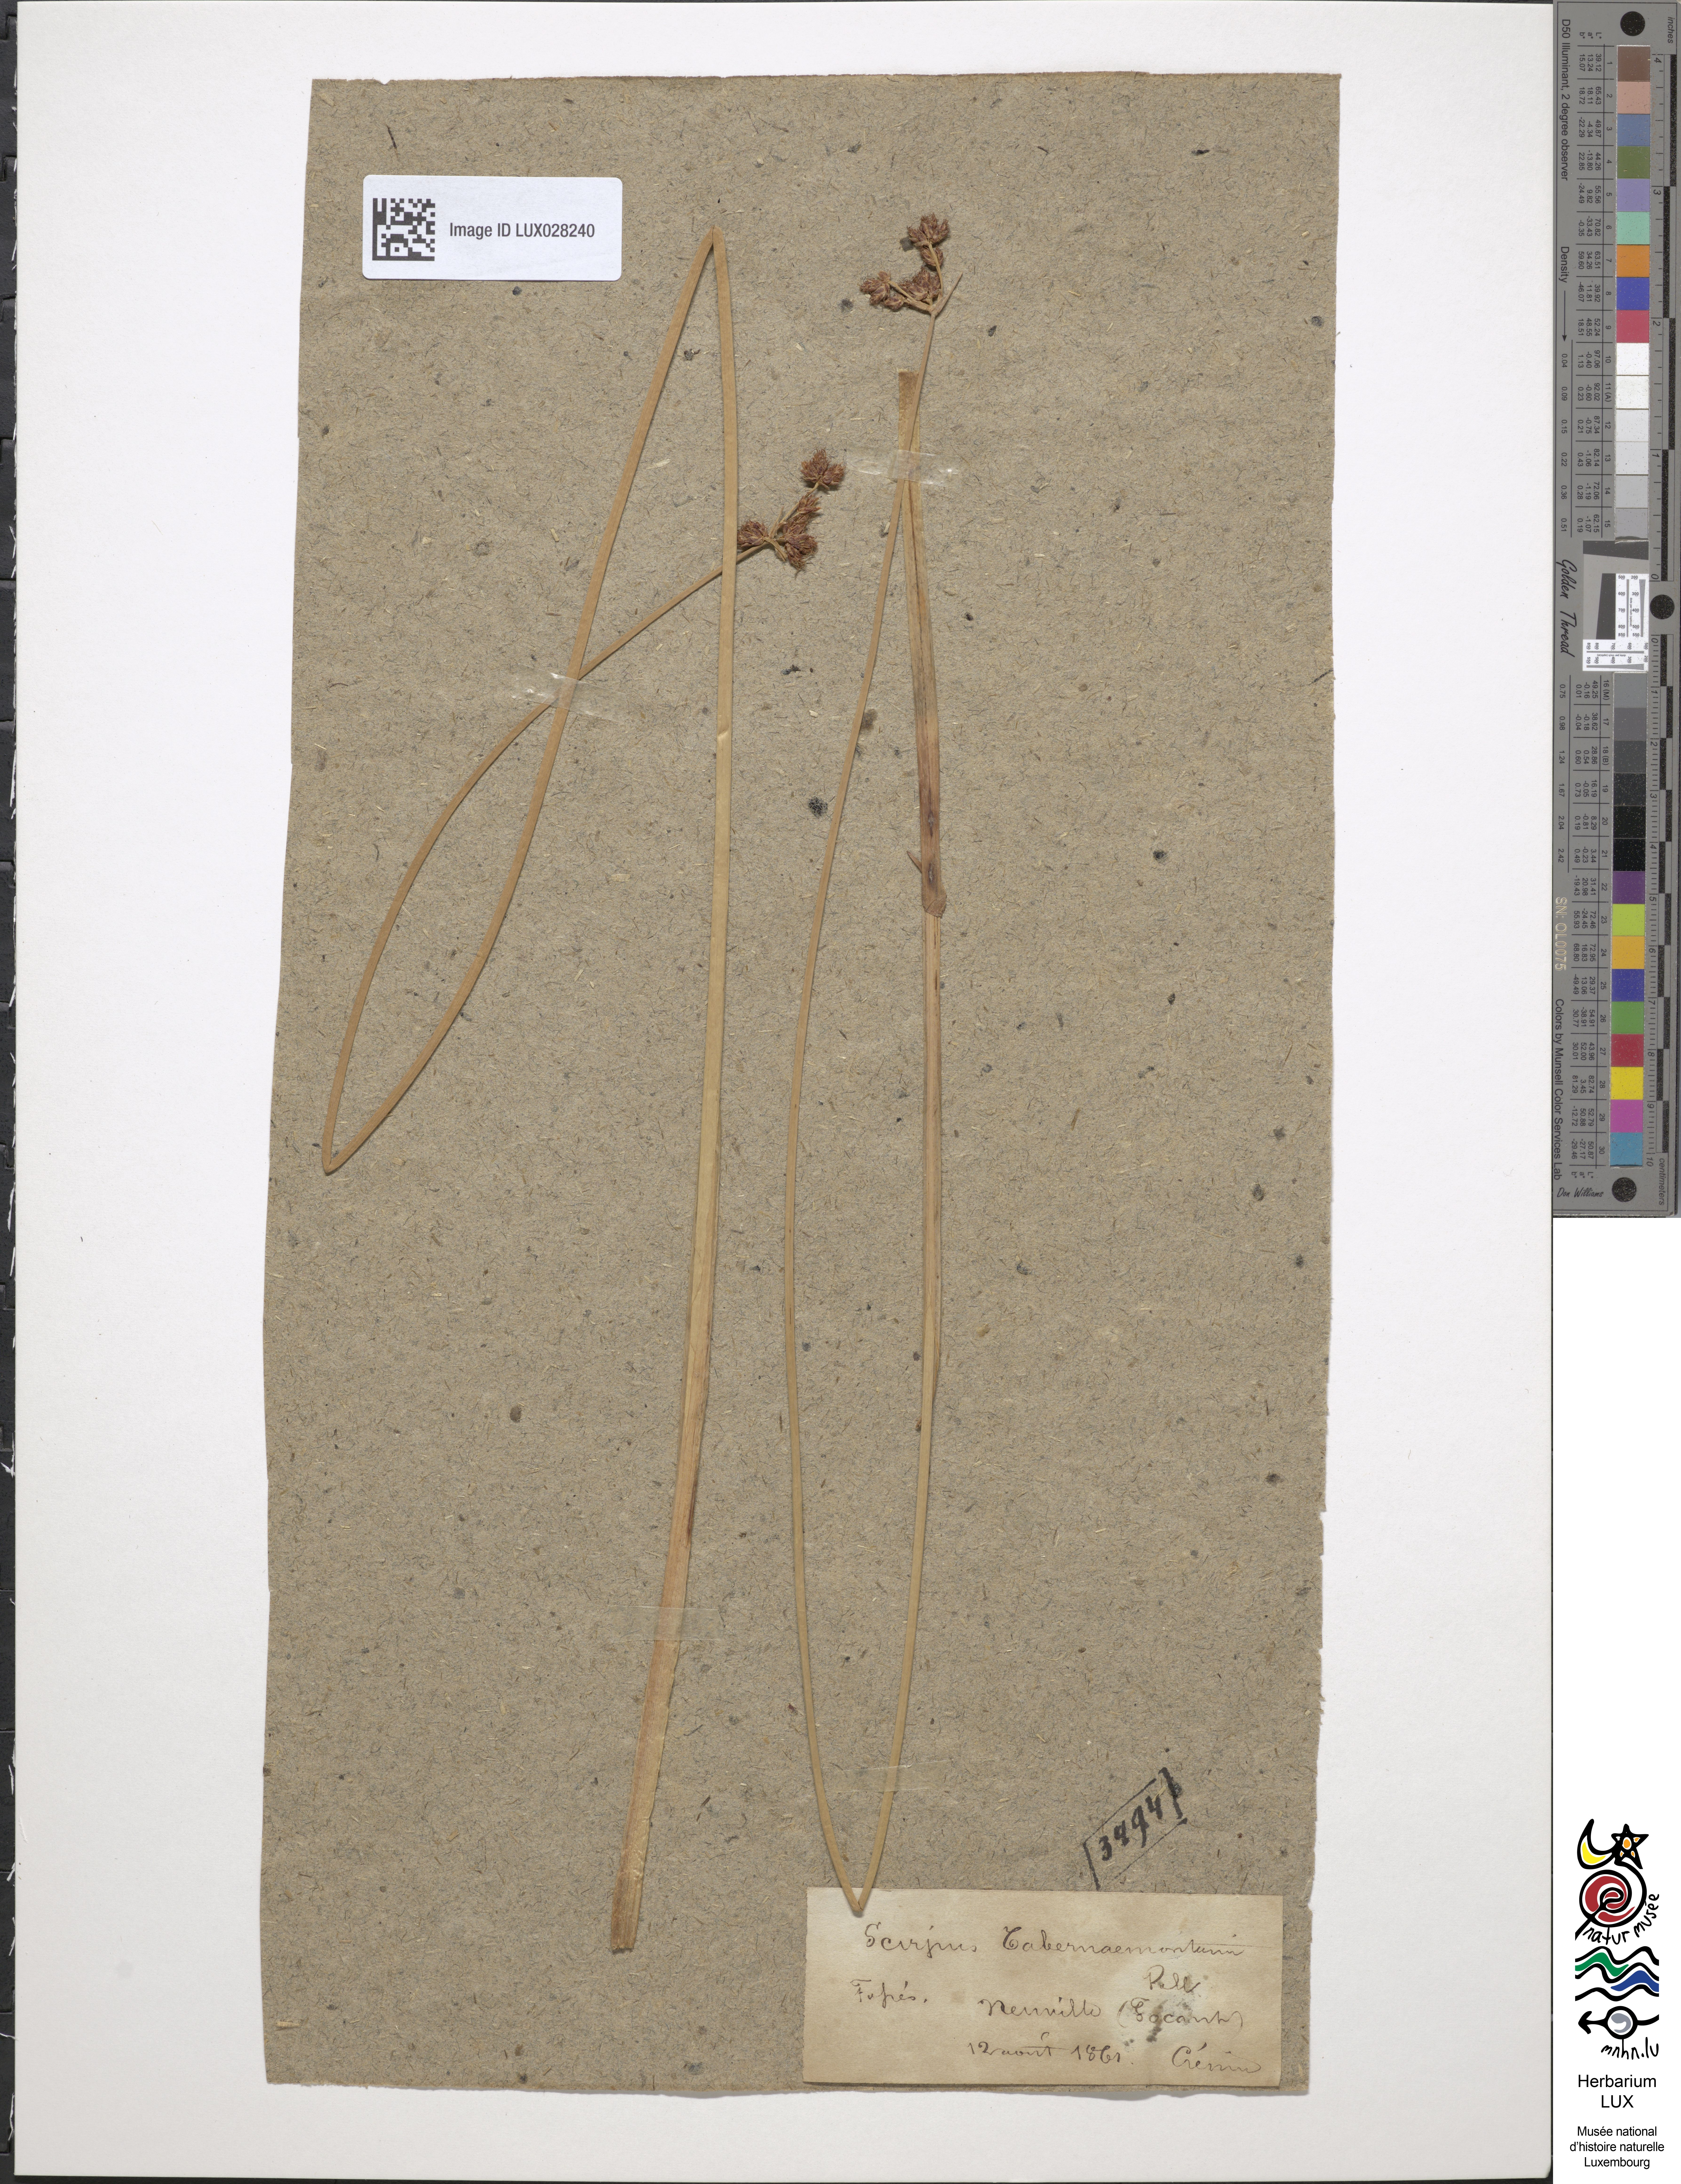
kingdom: Plantae
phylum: Tracheophyta
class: Liliopsida
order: Poales
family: Cyperaceae
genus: Schoenoplectus
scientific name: Schoenoplectus tabernaemontani
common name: Grey club-rush
